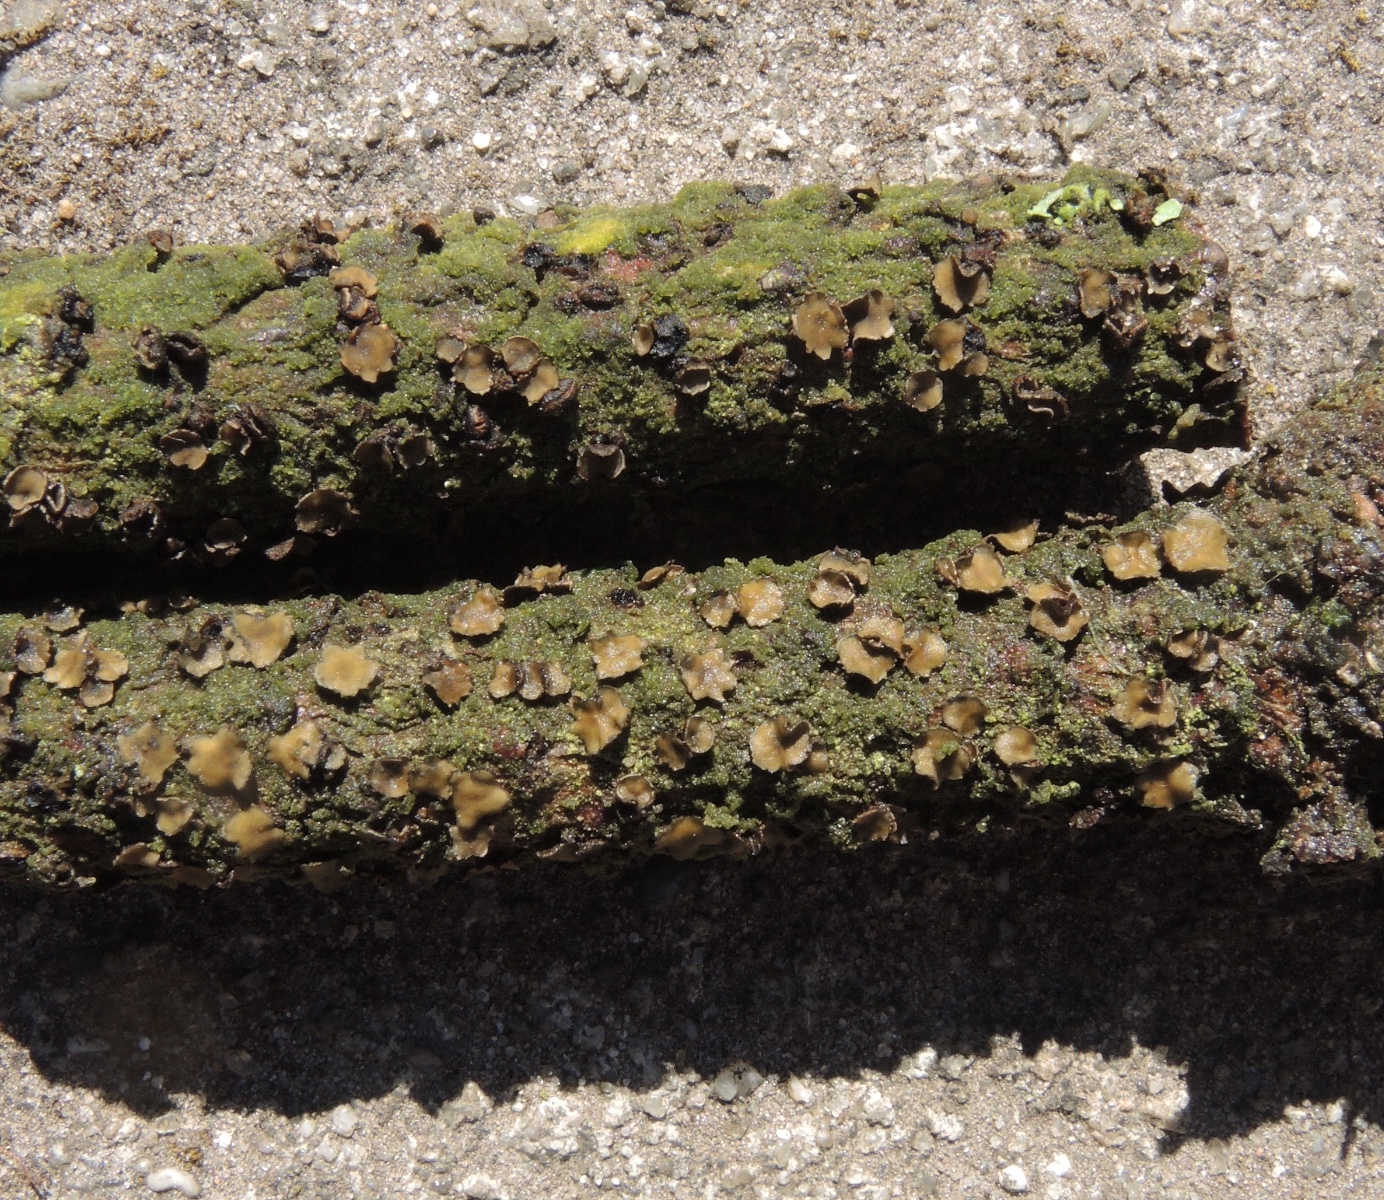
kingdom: Fungi
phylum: Ascomycota
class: Leotiomycetes
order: Helotiales
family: Cenangiaceae
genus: Cenangium
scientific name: Cenangium ferruginosum
